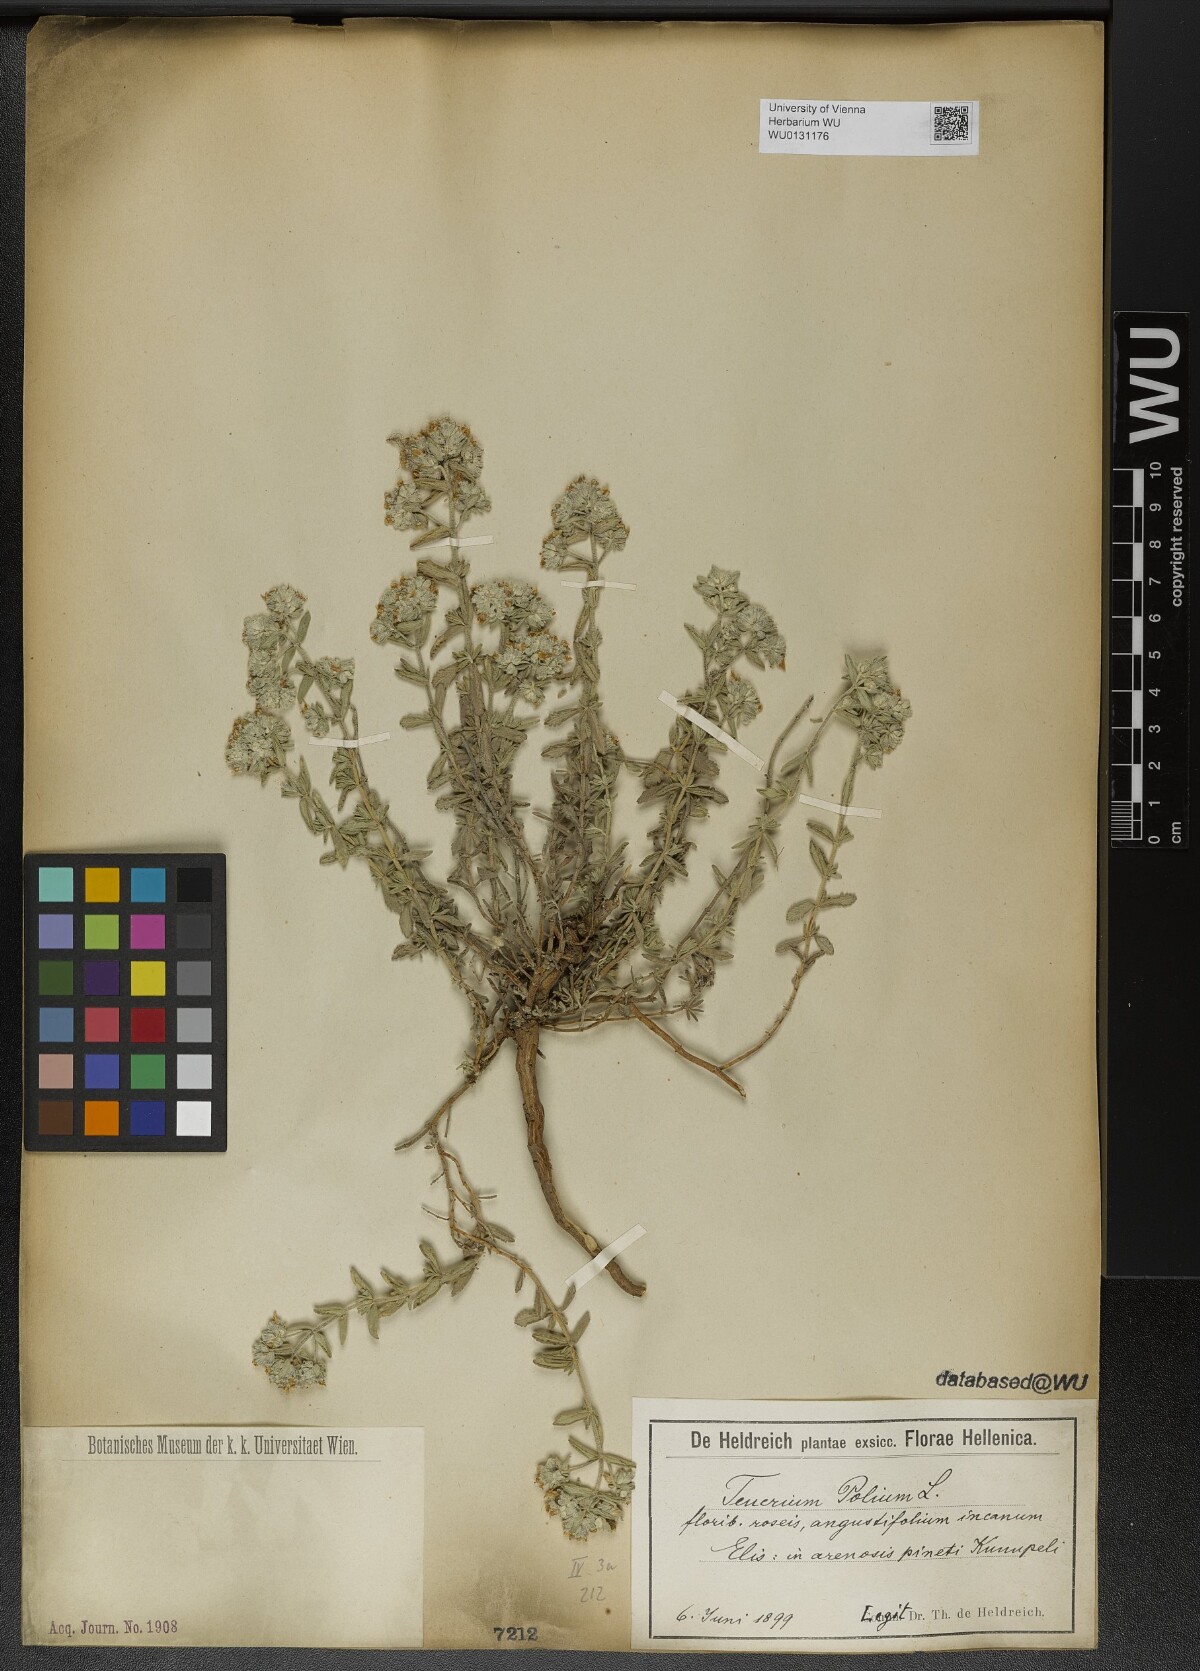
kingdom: Plantae
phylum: Tracheophyta
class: Magnoliopsida
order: Lamiales
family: Lamiaceae
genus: Teucrium
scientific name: Teucrium polium
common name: Poley
